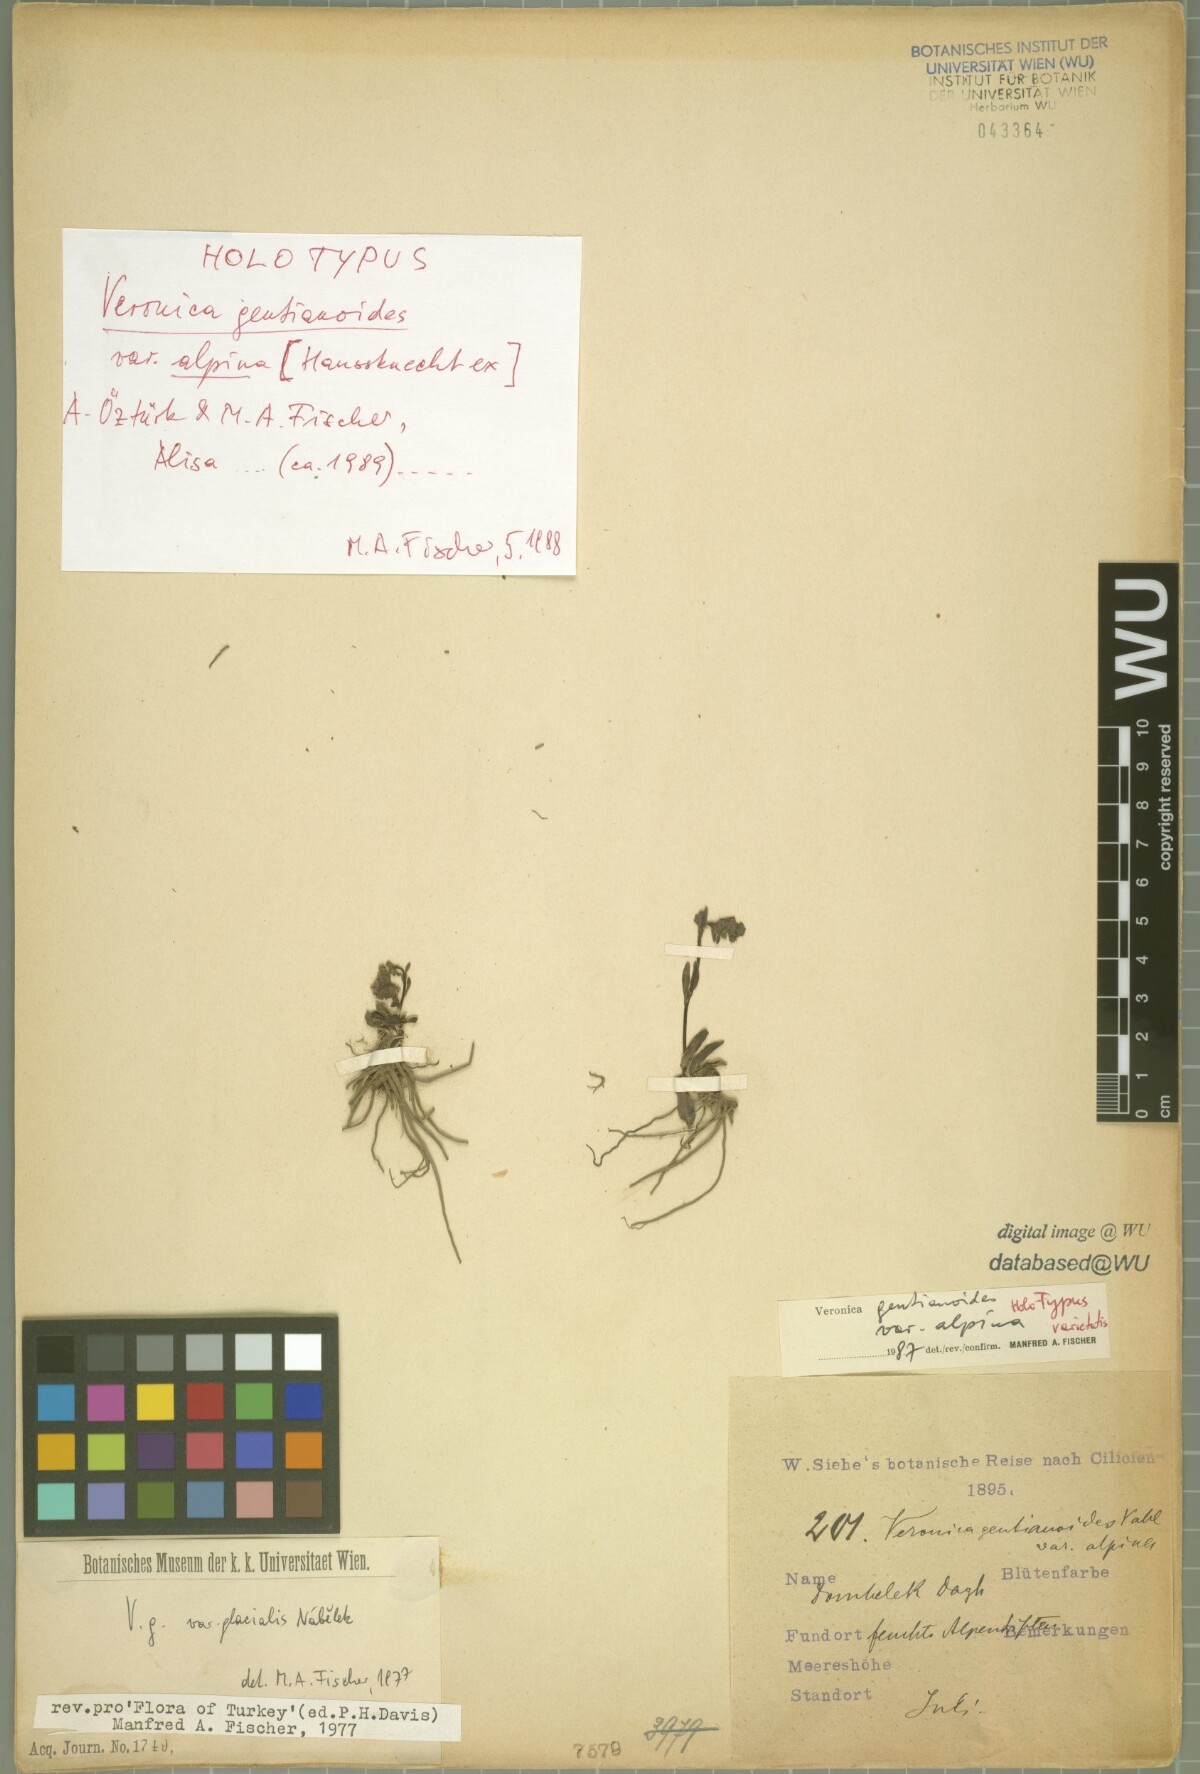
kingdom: Plantae
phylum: Tracheophyta
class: Magnoliopsida
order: Lamiales
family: Plantaginaceae
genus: Veronica
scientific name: Veronica gentianoides
